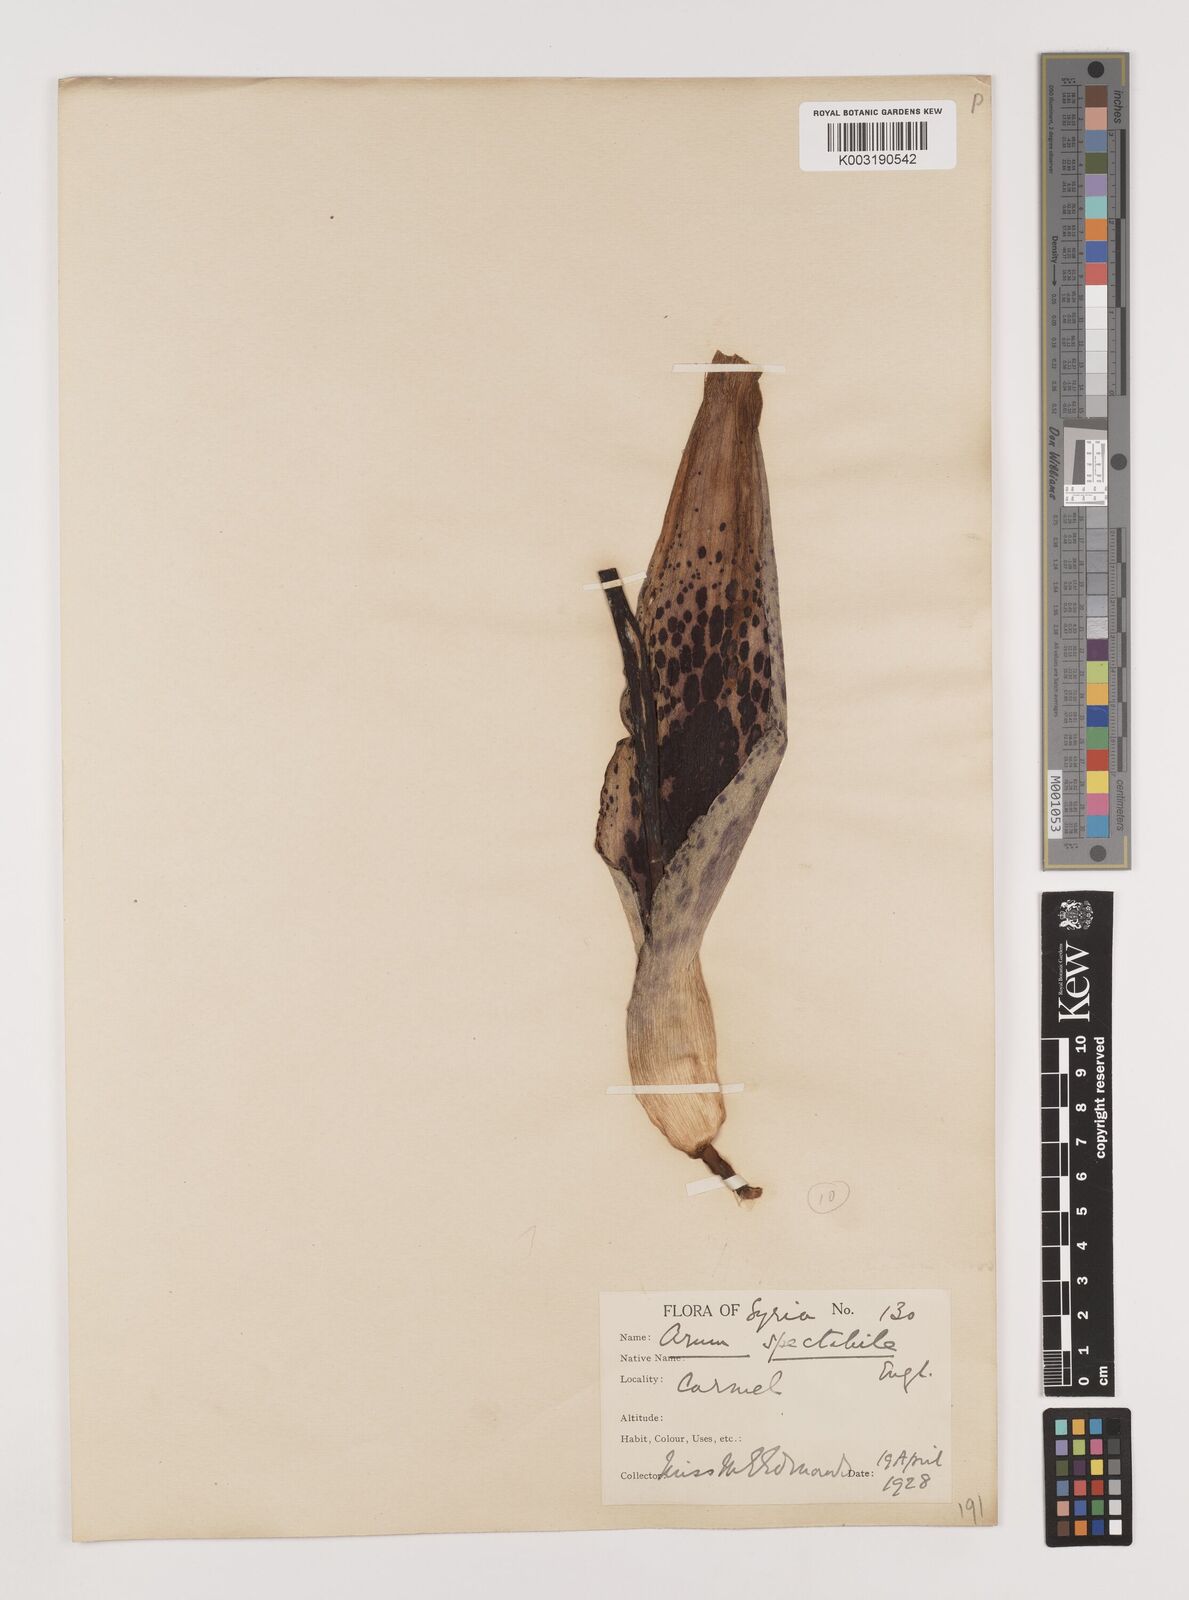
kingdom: Plantae
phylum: Tracheophyta
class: Liliopsida
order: Alismatales
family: Araceae
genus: Arum
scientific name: Arum dioscoridis
